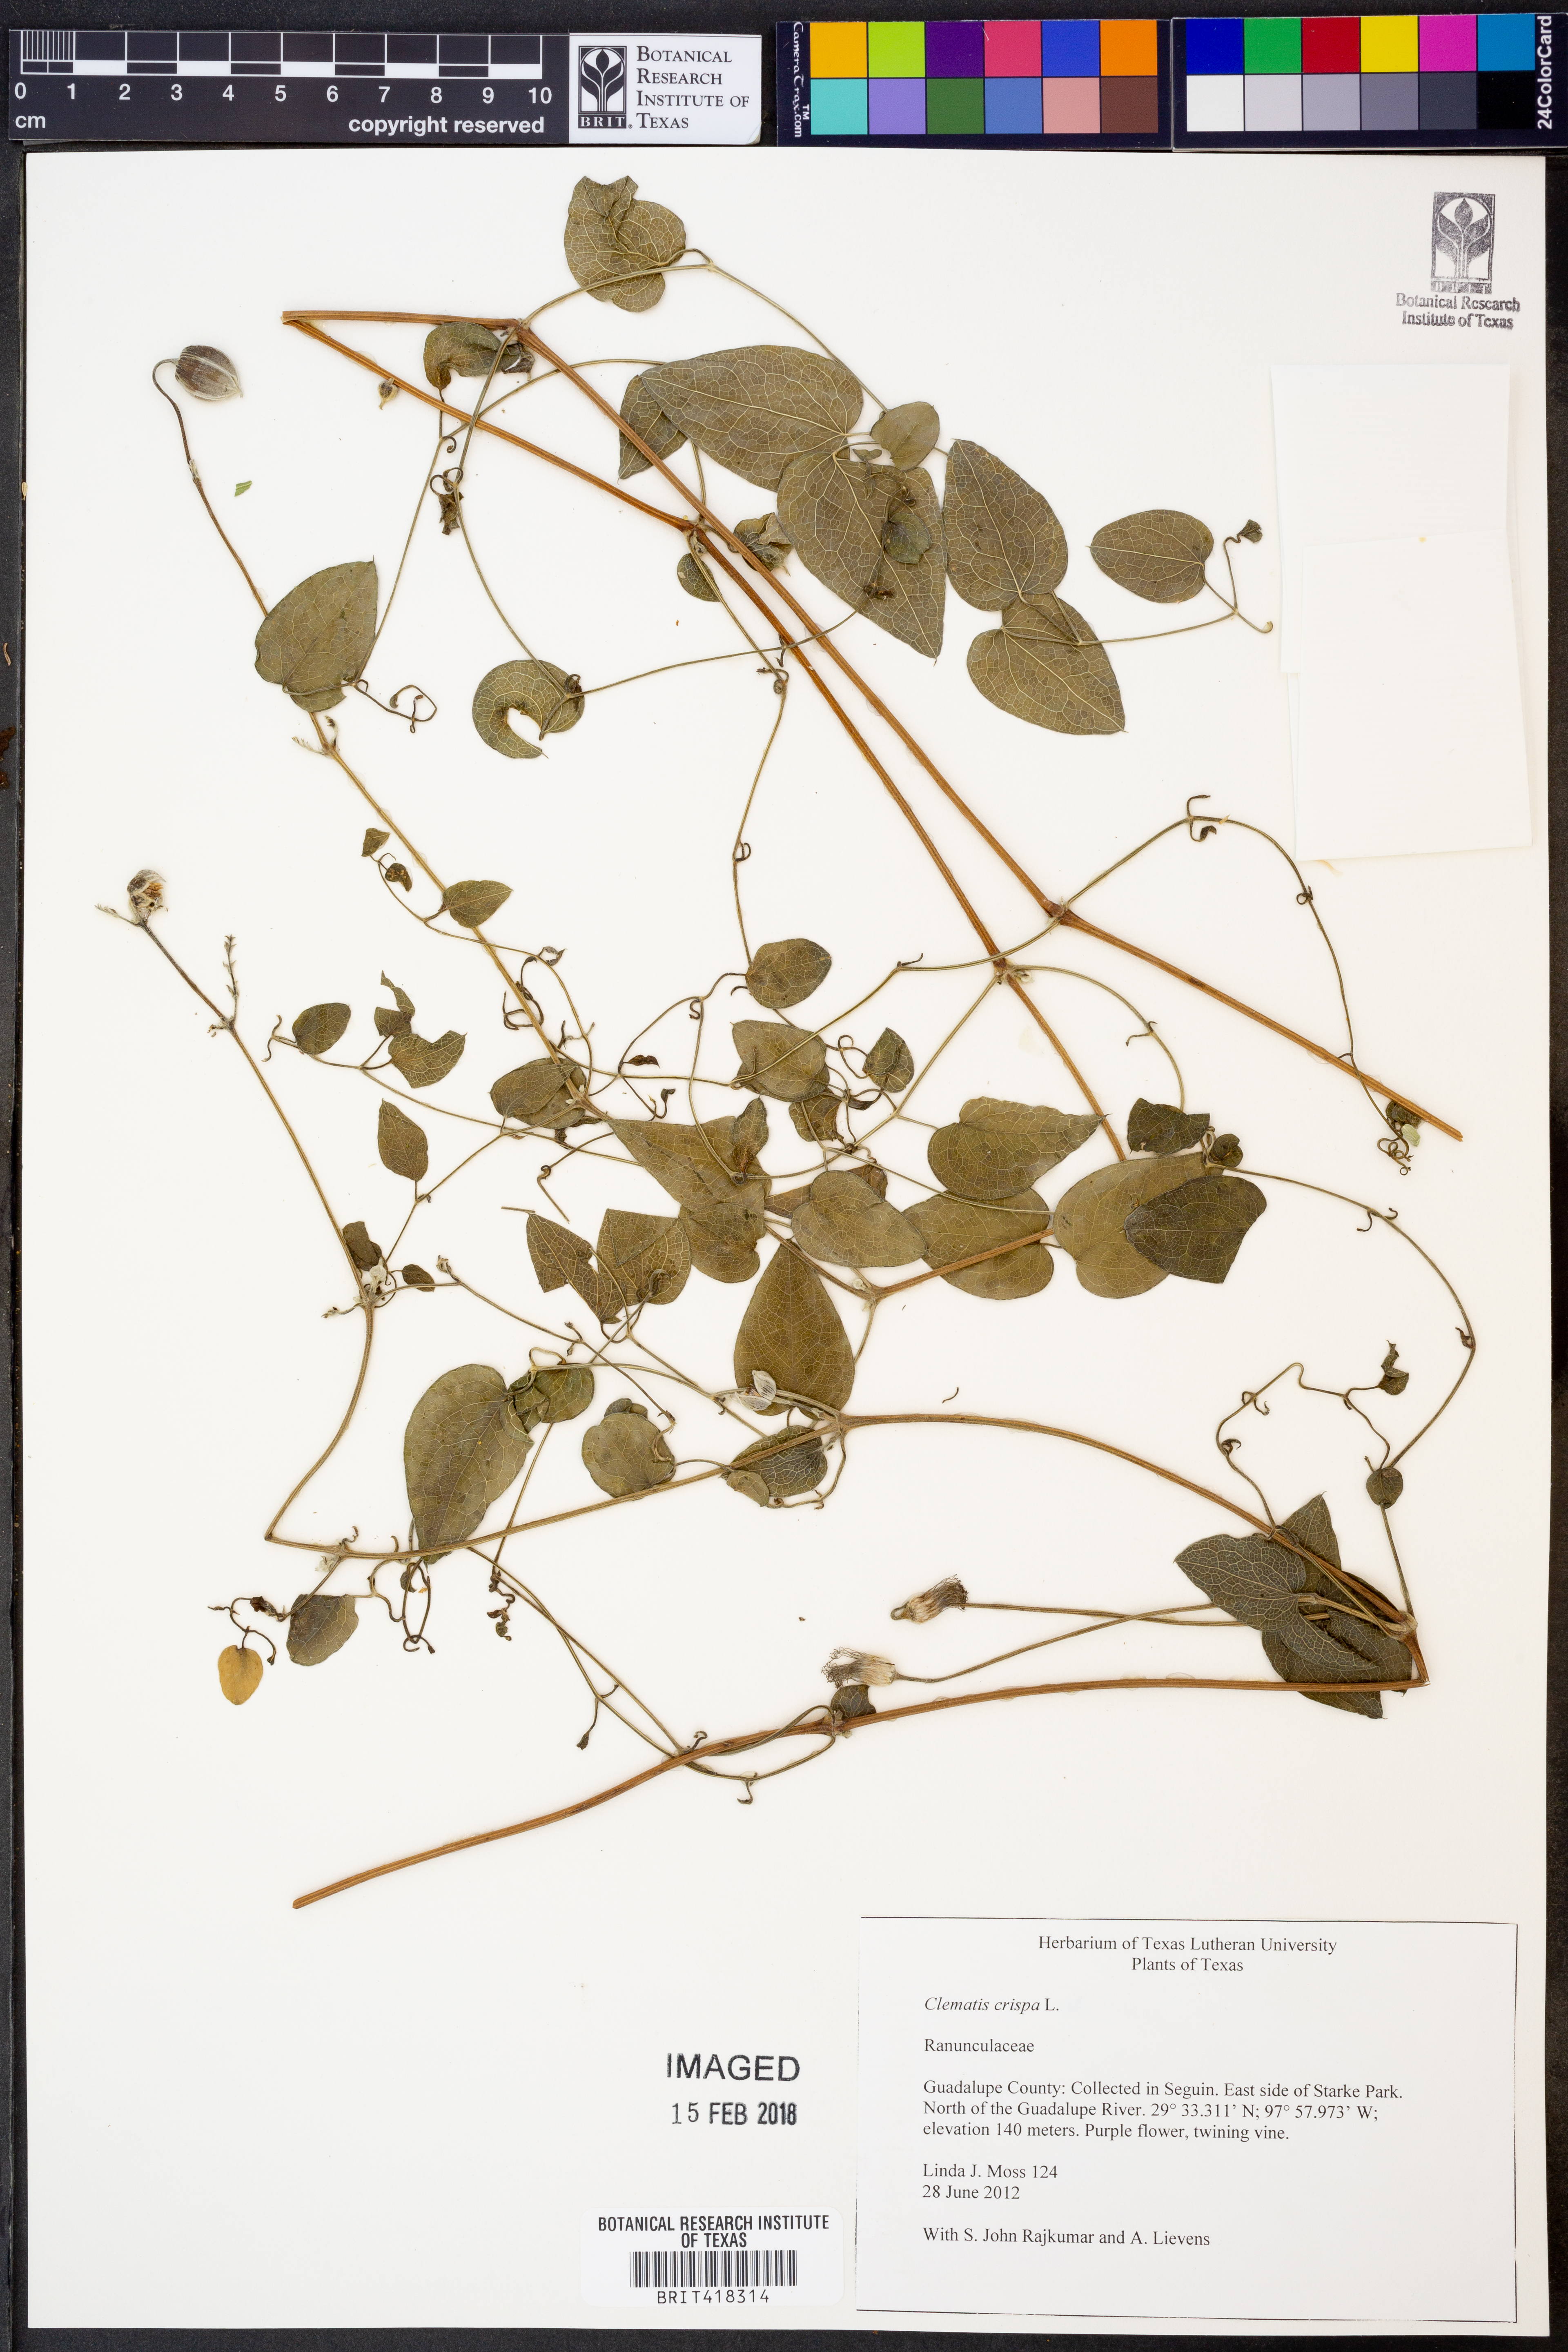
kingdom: Plantae
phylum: Tracheophyta
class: Magnoliopsida
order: Ranunculales
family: Ranunculaceae
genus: Clematis
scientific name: Clematis crispa
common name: Curly clematis
